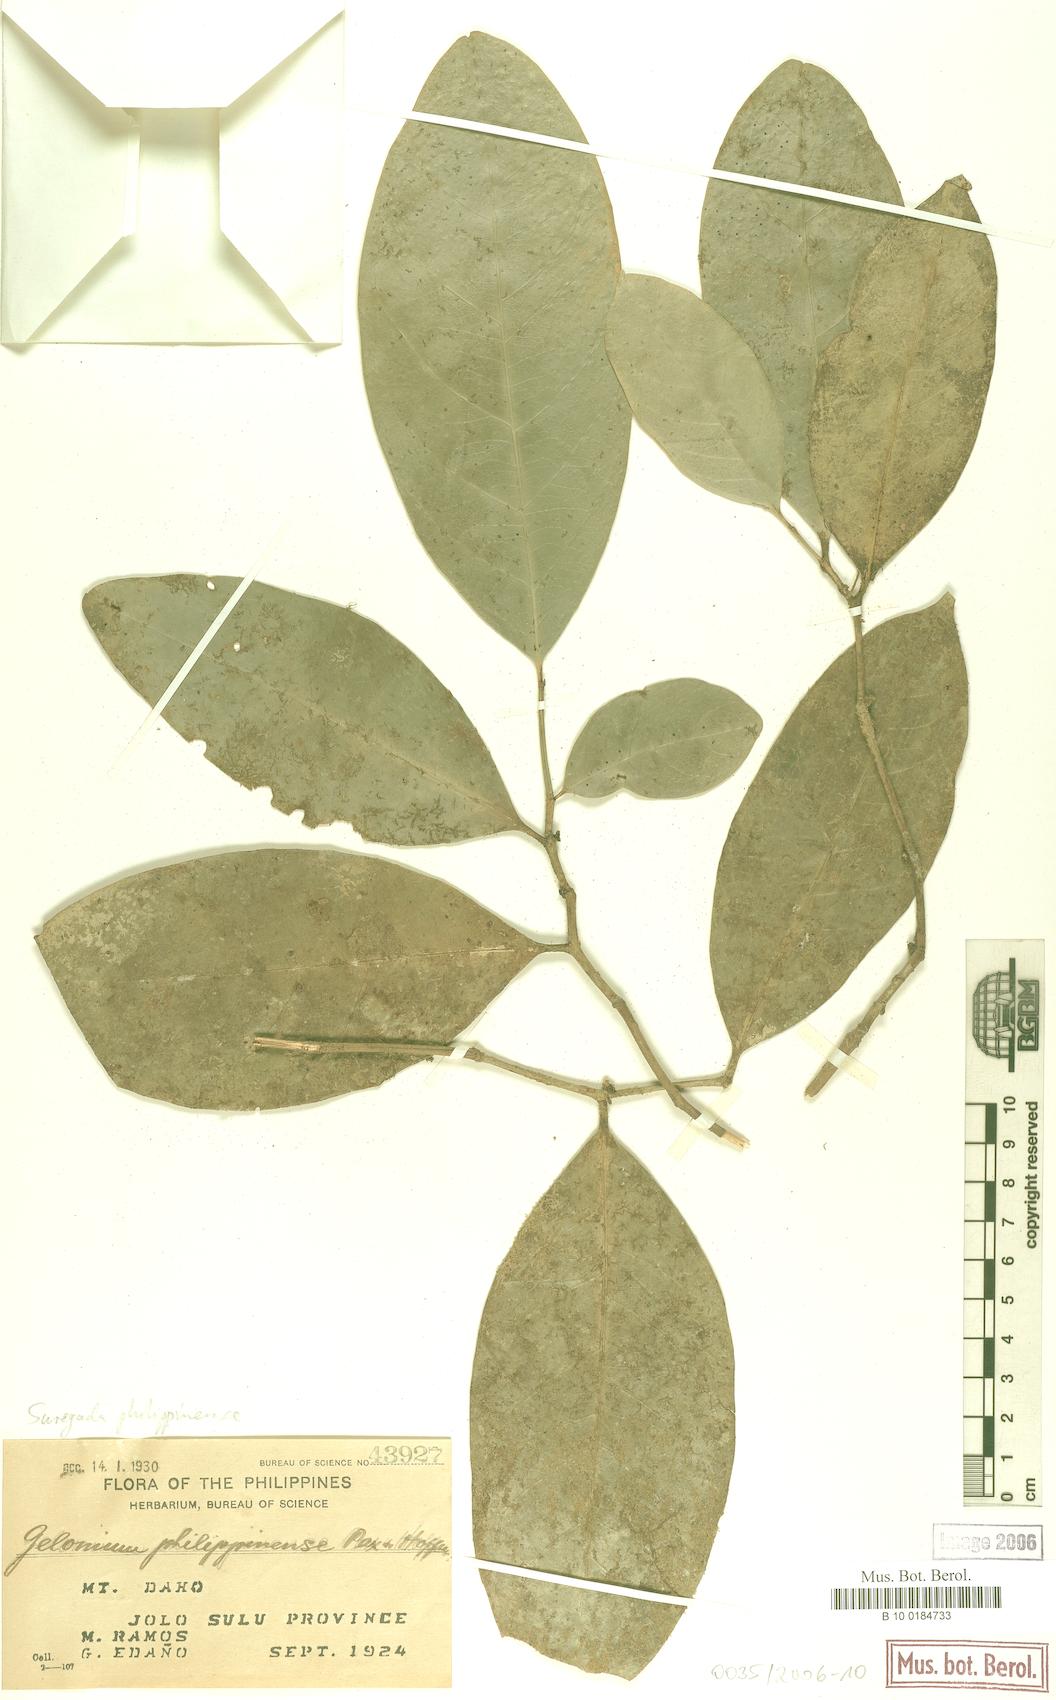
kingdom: Plantae
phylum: Tracheophyta
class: Magnoliopsida
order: Malpighiales
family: Euphorbiaceae
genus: Suregada
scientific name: Suregada glomerulata
